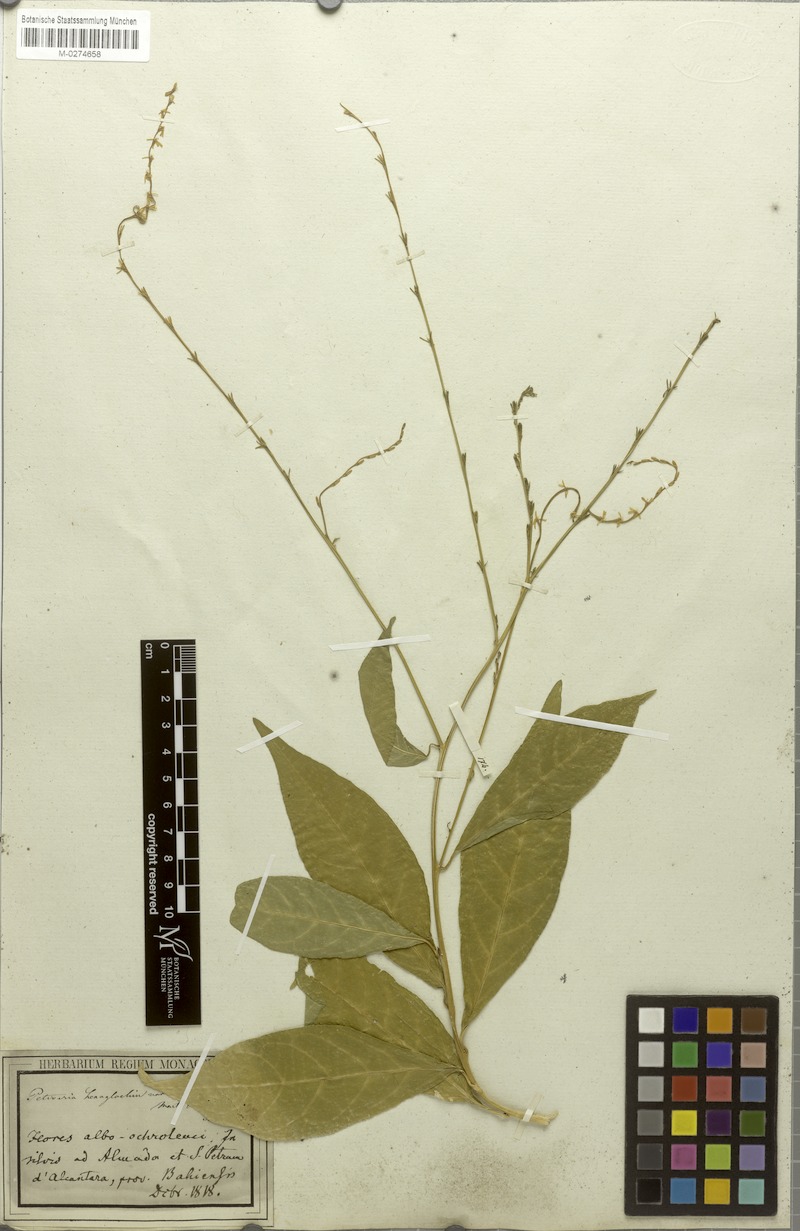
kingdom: Plantae
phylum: Tracheophyta
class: Magnoliopsida
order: Caryophyllales
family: Phytolaccaceae
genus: Petiveria
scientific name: Petiveria alliacea
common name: Garlicweed
